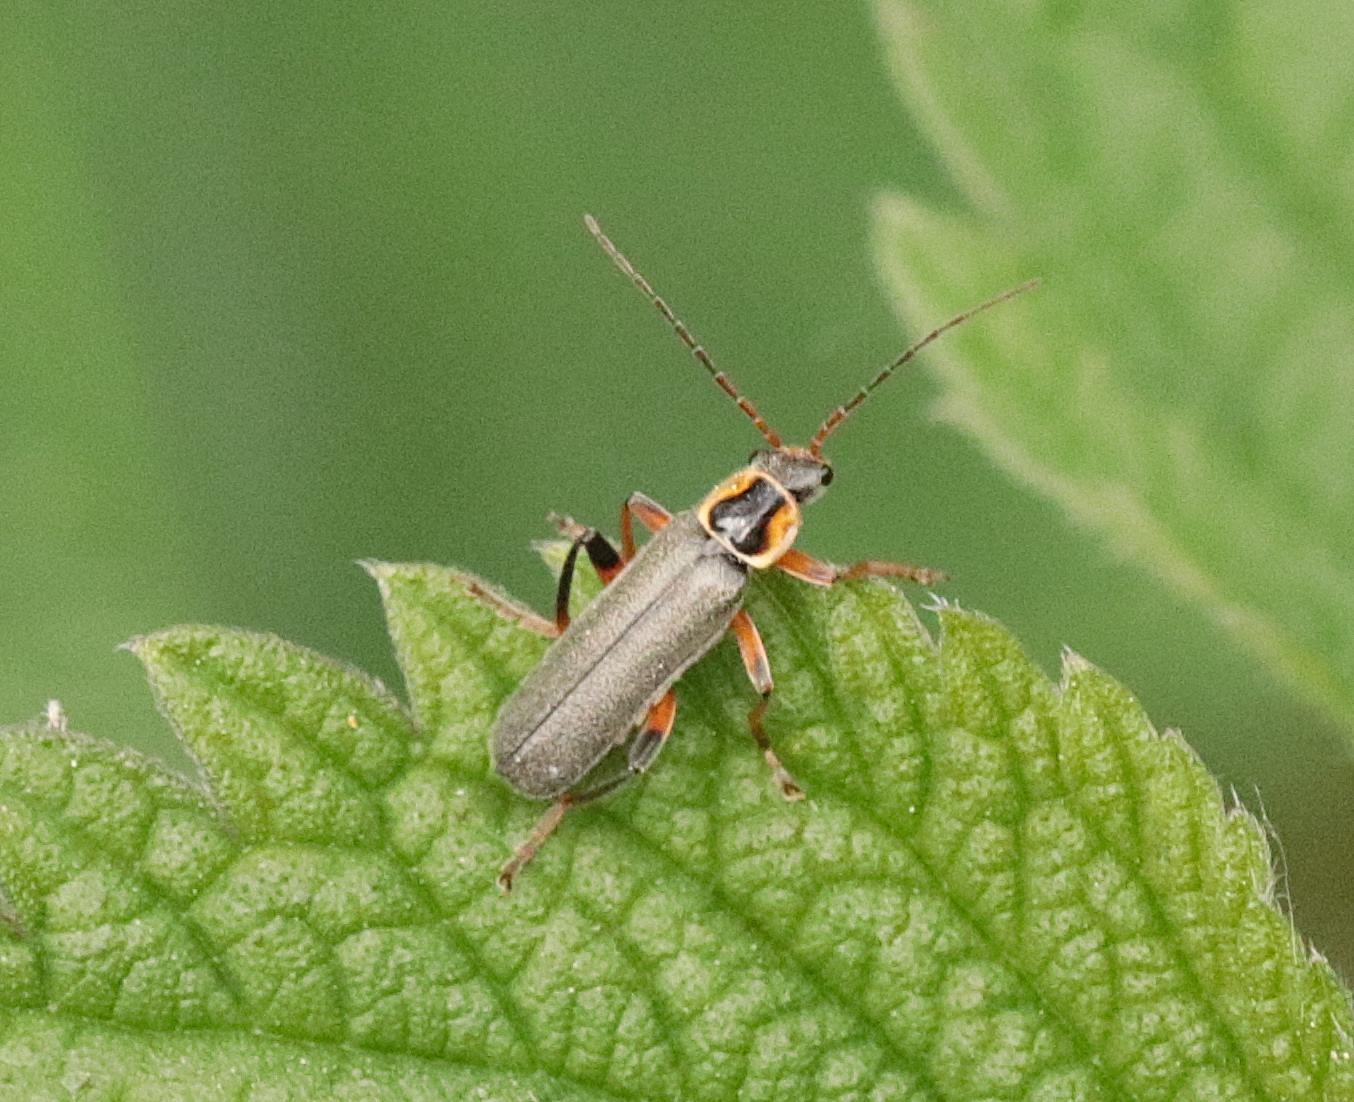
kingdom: Animalia
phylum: Arthropoda
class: Insecta
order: Coleoptera
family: Cantharidae
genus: Cantharis
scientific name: Cantharis nigricans
